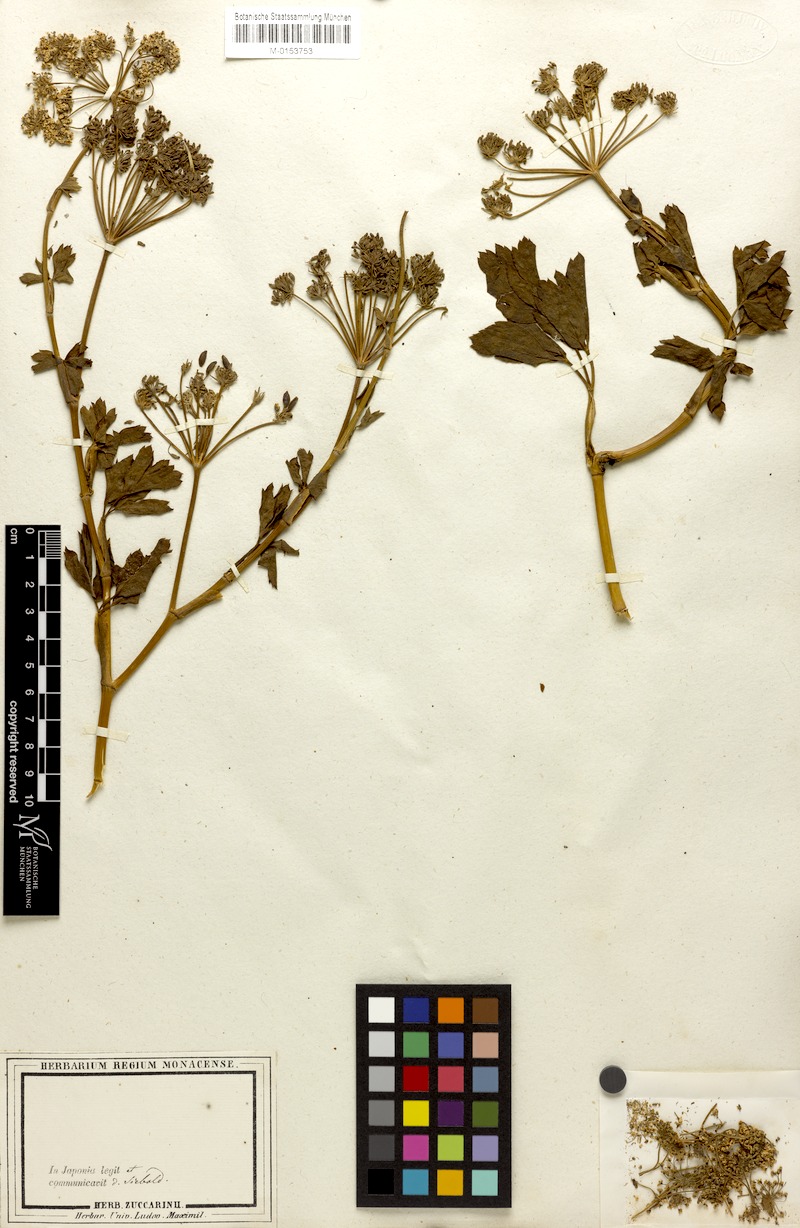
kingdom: Plantae
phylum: Tracheophyta
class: Magnoliopsida
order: Apiales
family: Apiaceae
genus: Peucedanum
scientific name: Peucedanum japonicum
